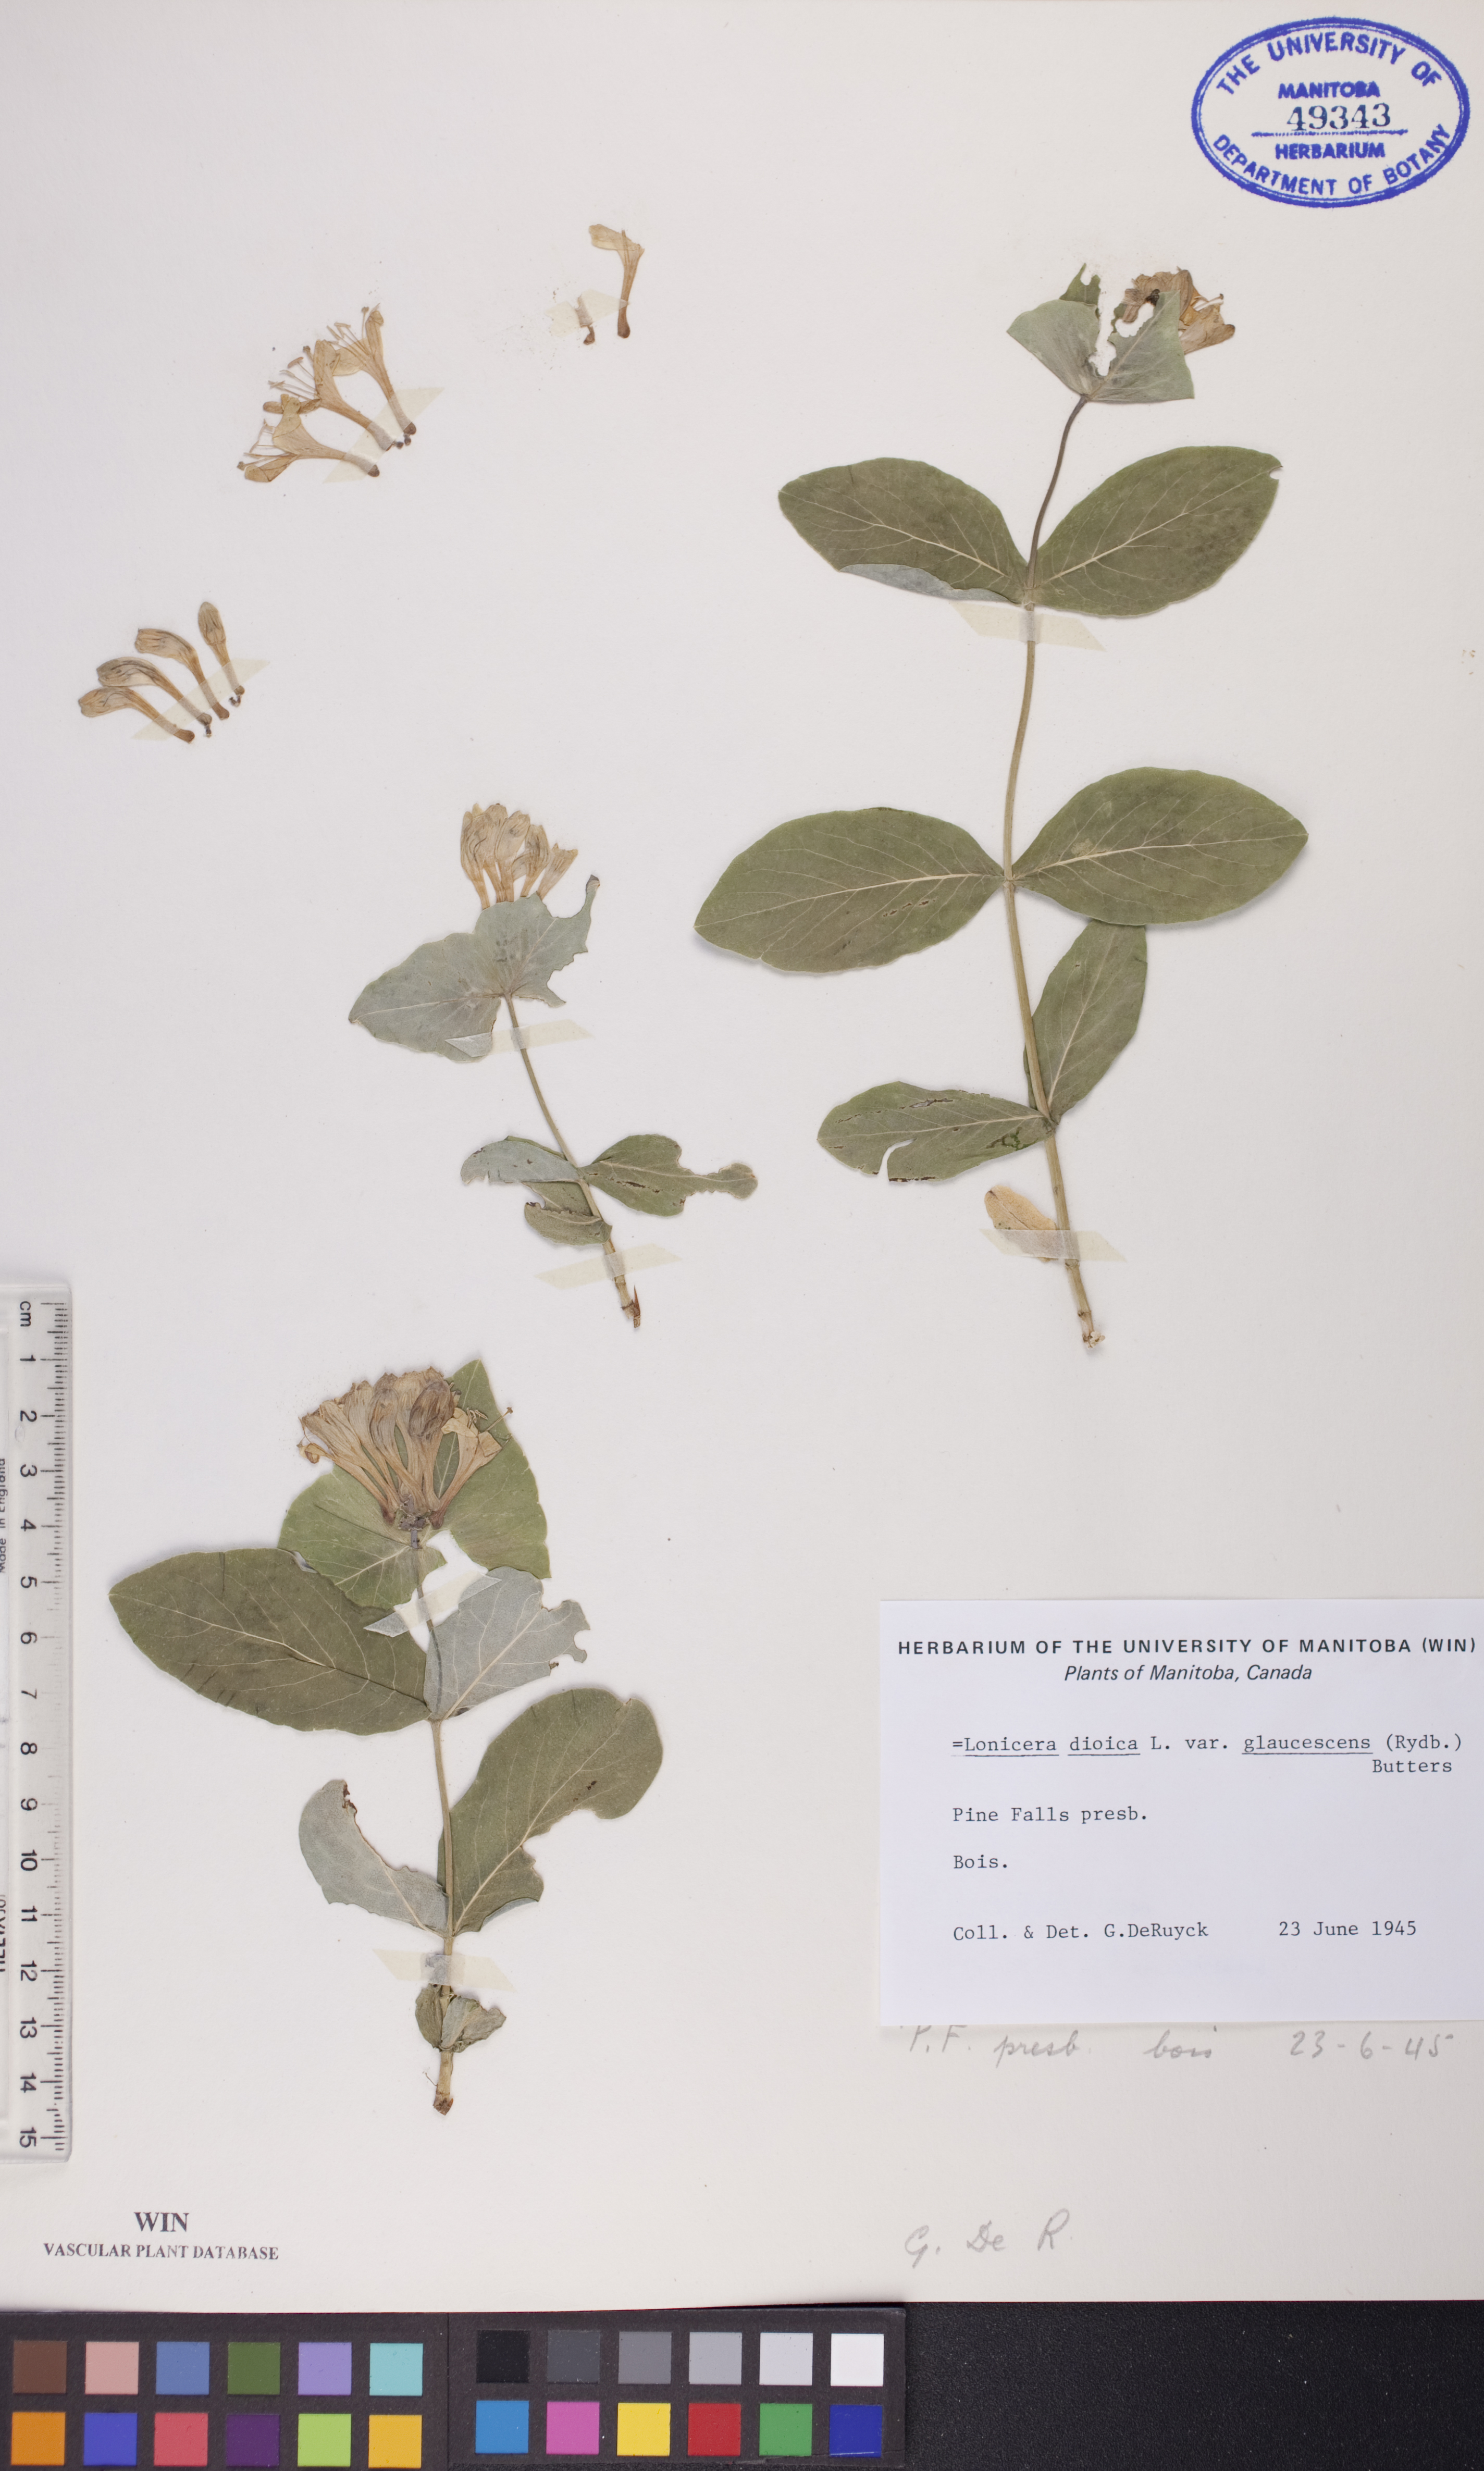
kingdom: Plantae
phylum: Tracheophyta
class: Magnoliopsida
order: Dipsacales
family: Caprifoliaceae
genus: Lonicera
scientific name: Lonicera dioica
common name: Limber honeysuckle
